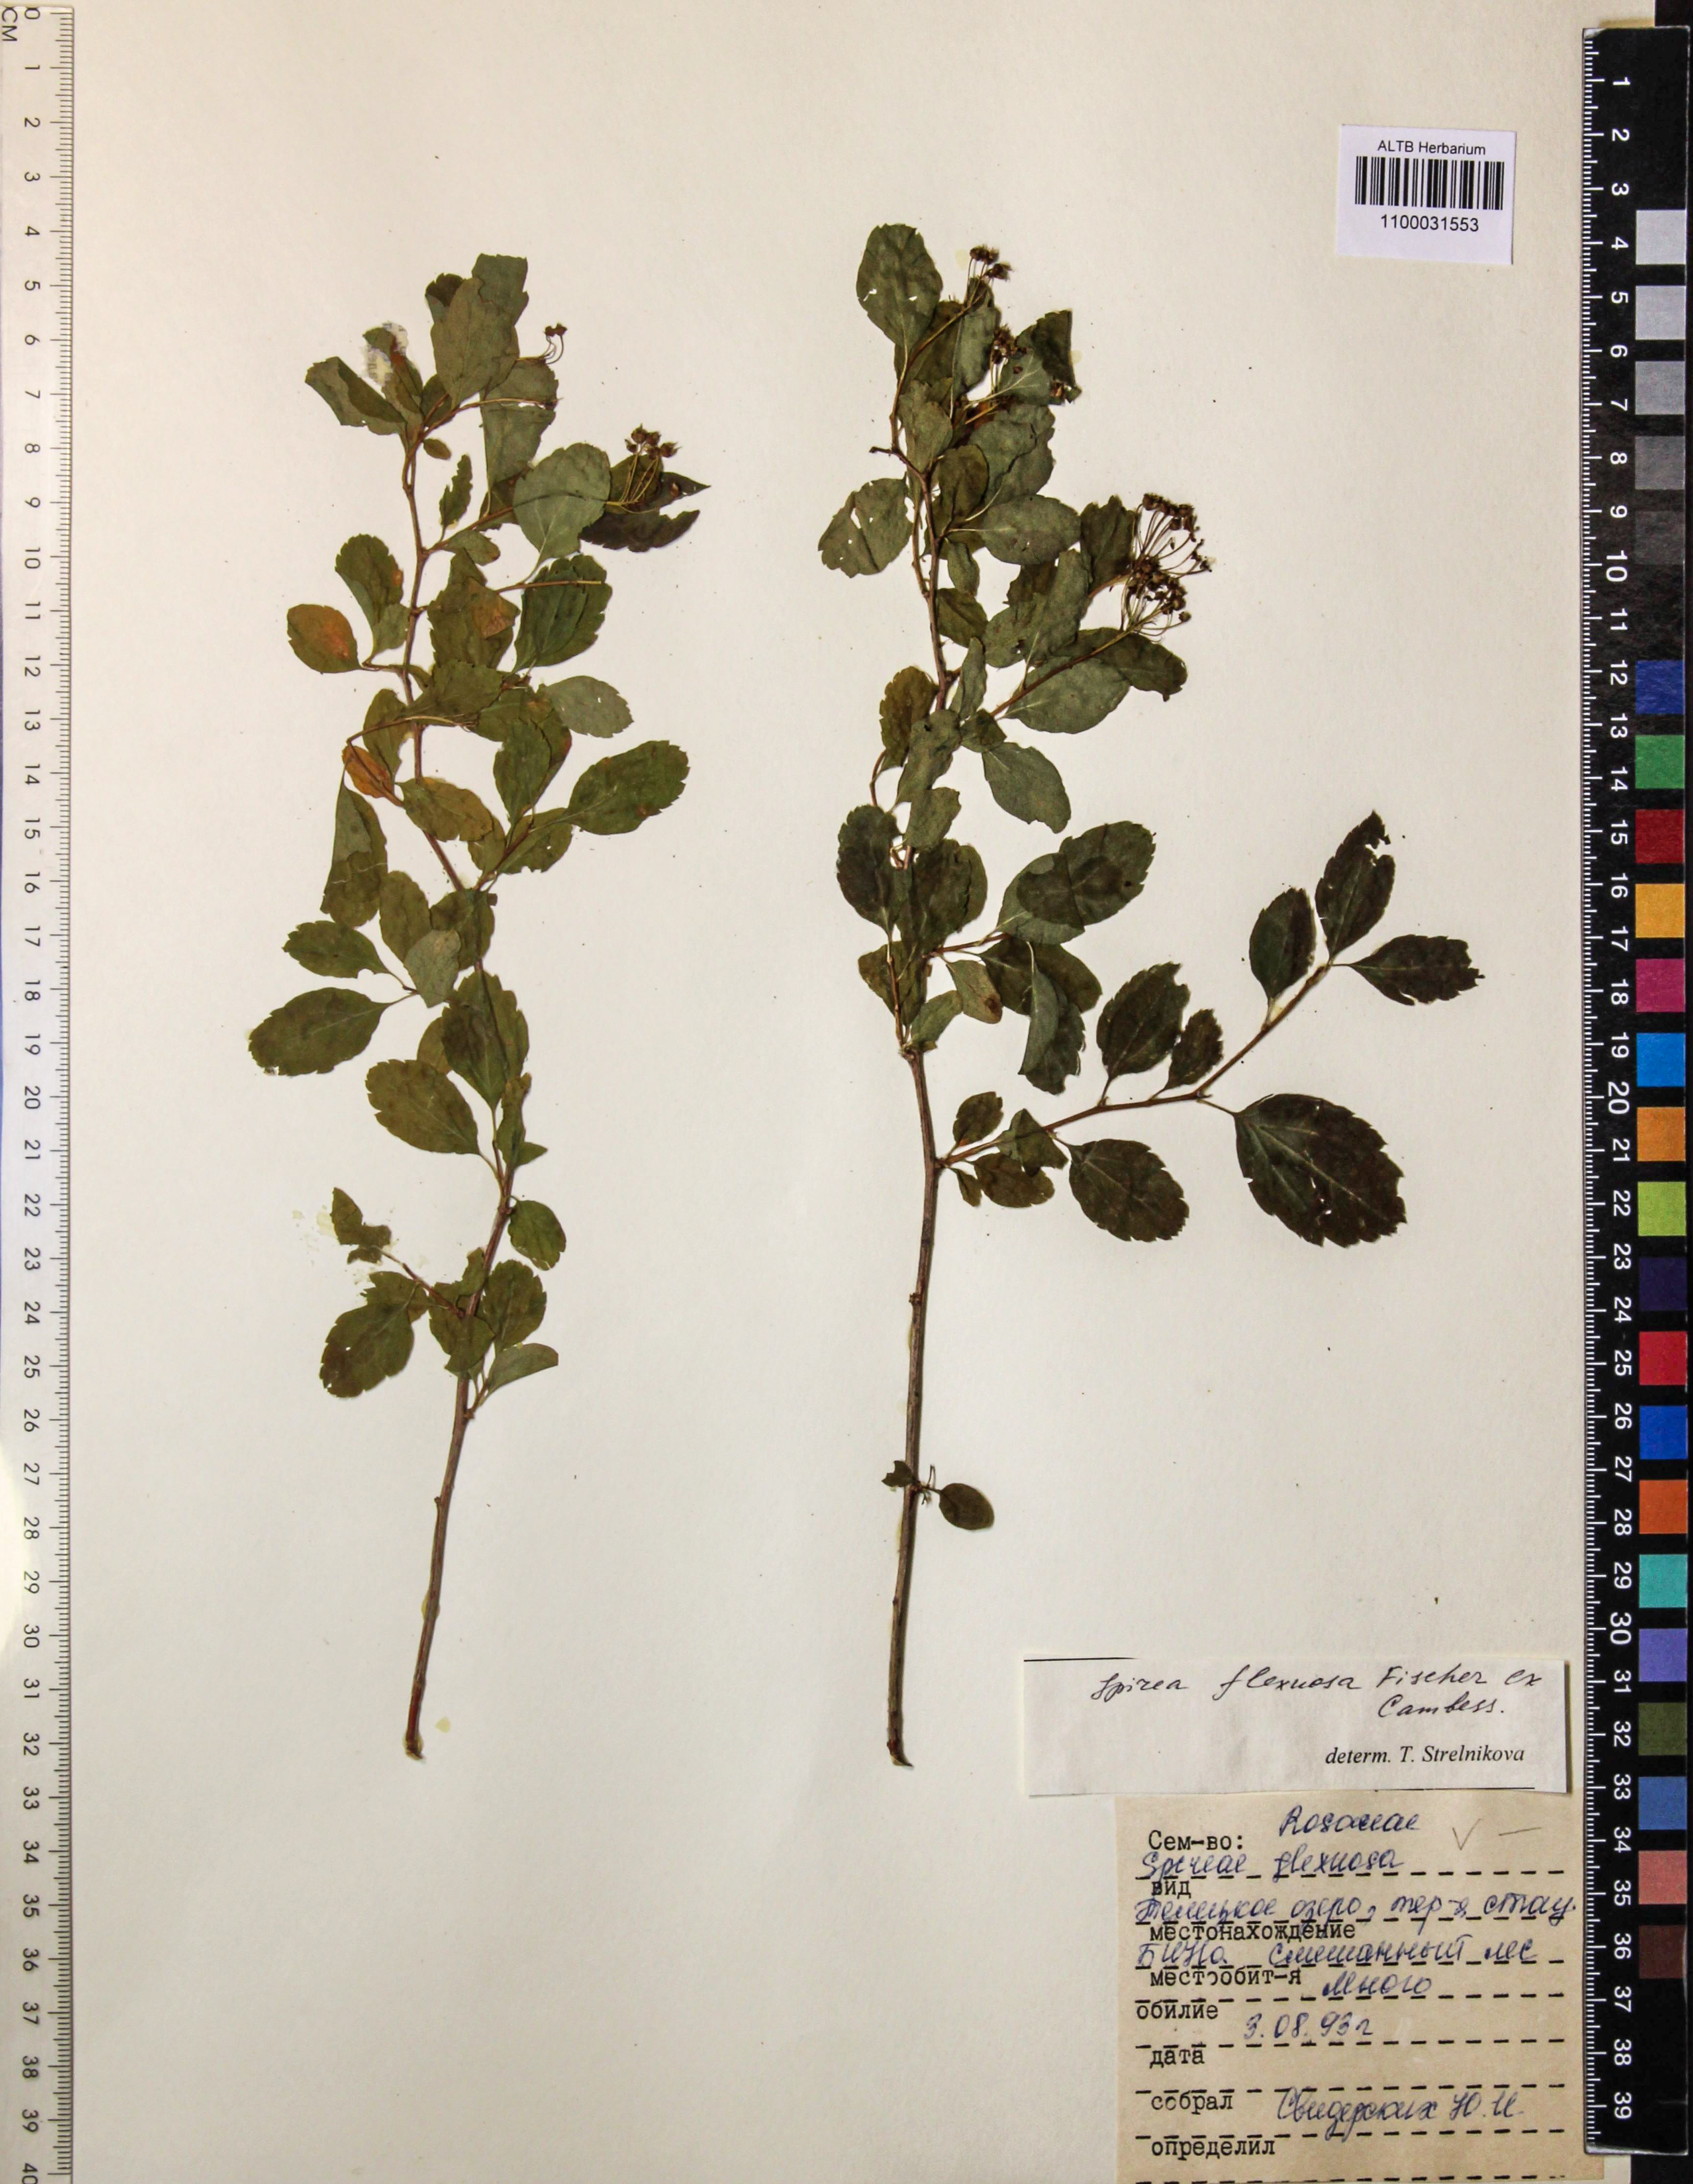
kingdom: Plantae
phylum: Tracheophyta
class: Magnoliopsida
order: Rosales
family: Rosaceae
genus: Spiraea
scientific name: Spiraea flexuosa
